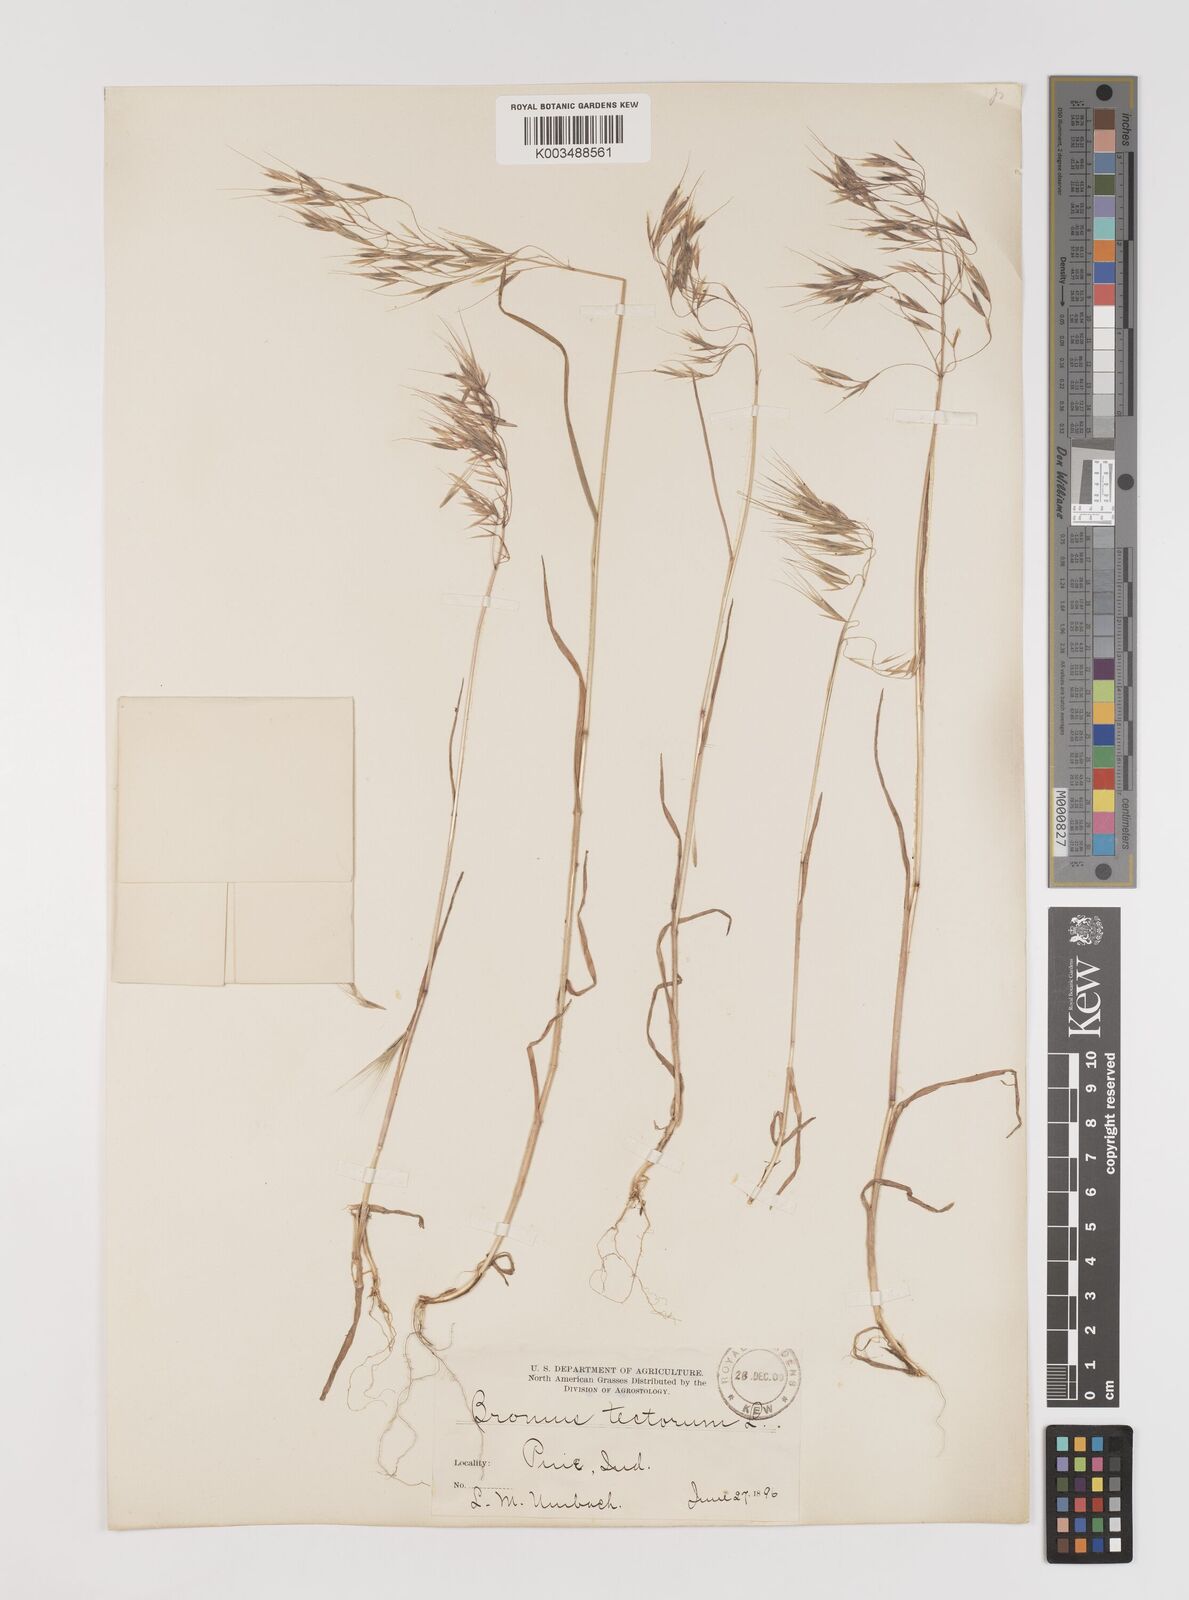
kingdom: Plantae
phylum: Tracheophyta
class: Liliopsida
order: Poales
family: Poaceae
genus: Bromus
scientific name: Bromus tectorum
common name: Cheatgrass
